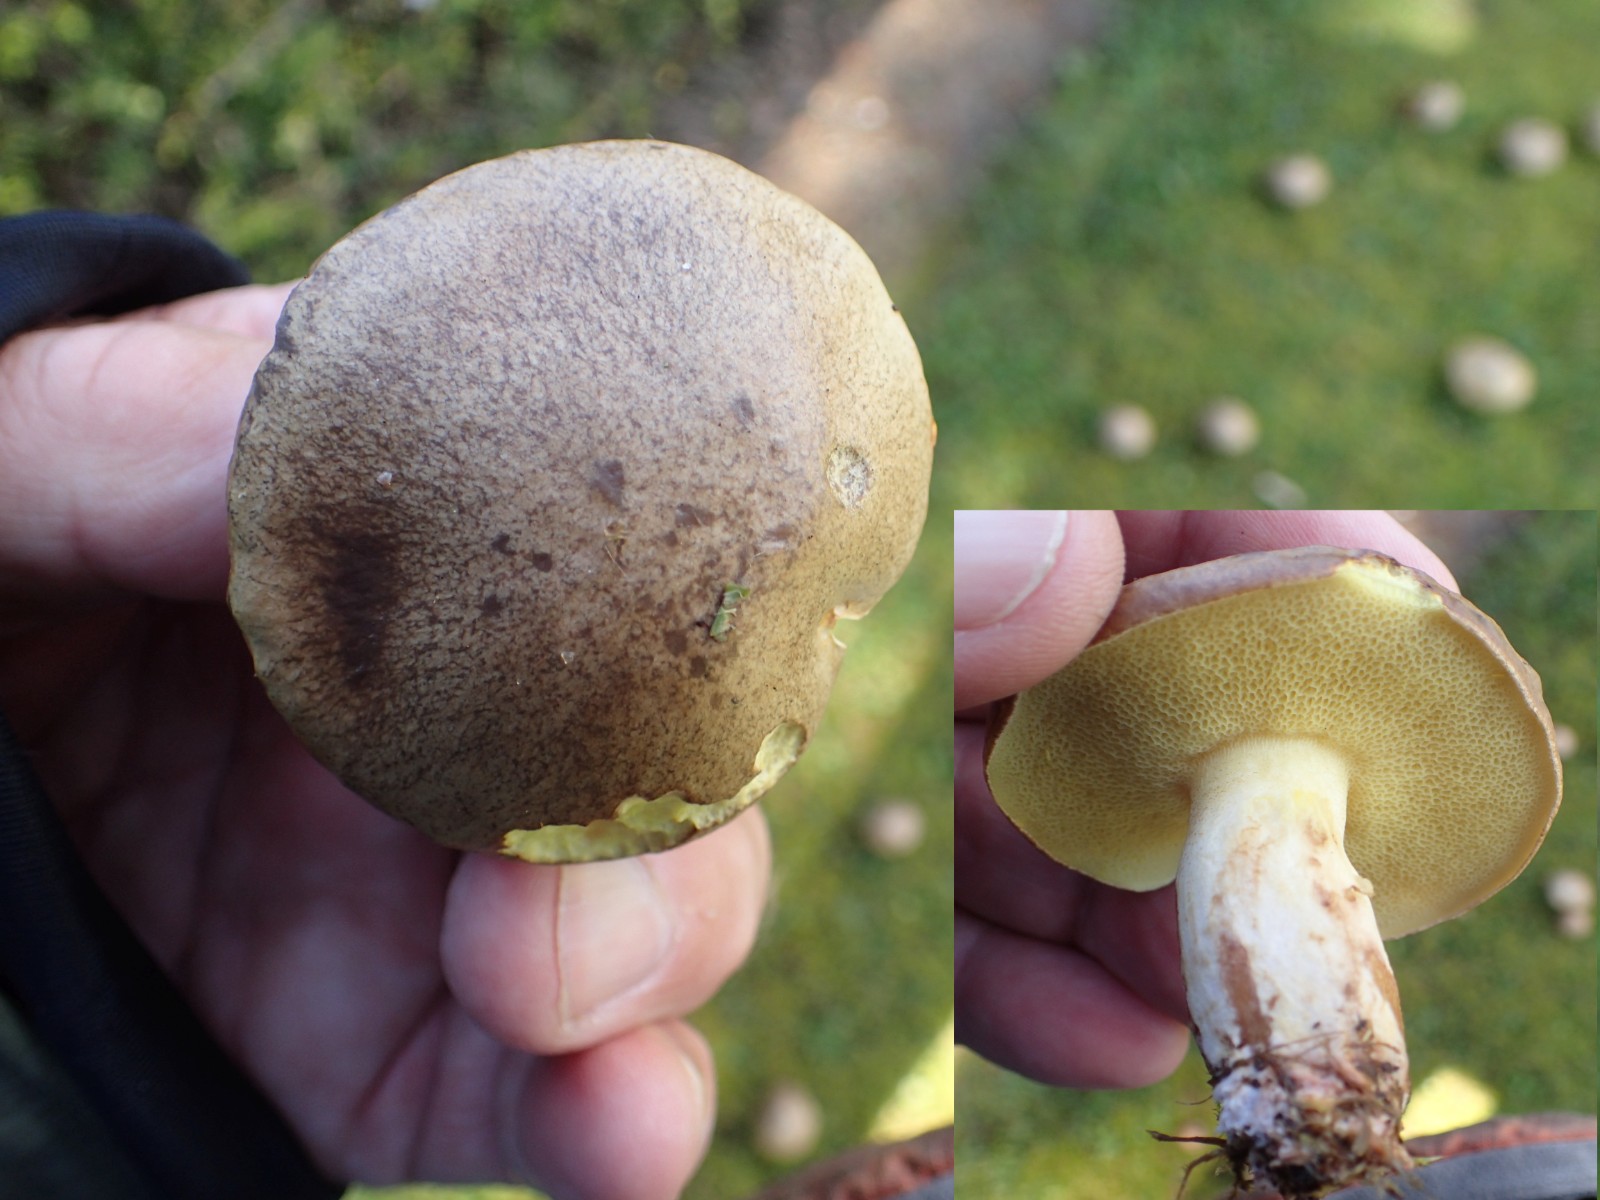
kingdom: Fungi
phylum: Basidiomycota
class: Agaricomycetes
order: Boletales
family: Suillaceae
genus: Suillus
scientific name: Suillus granulatus
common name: kornet slimrørhat
